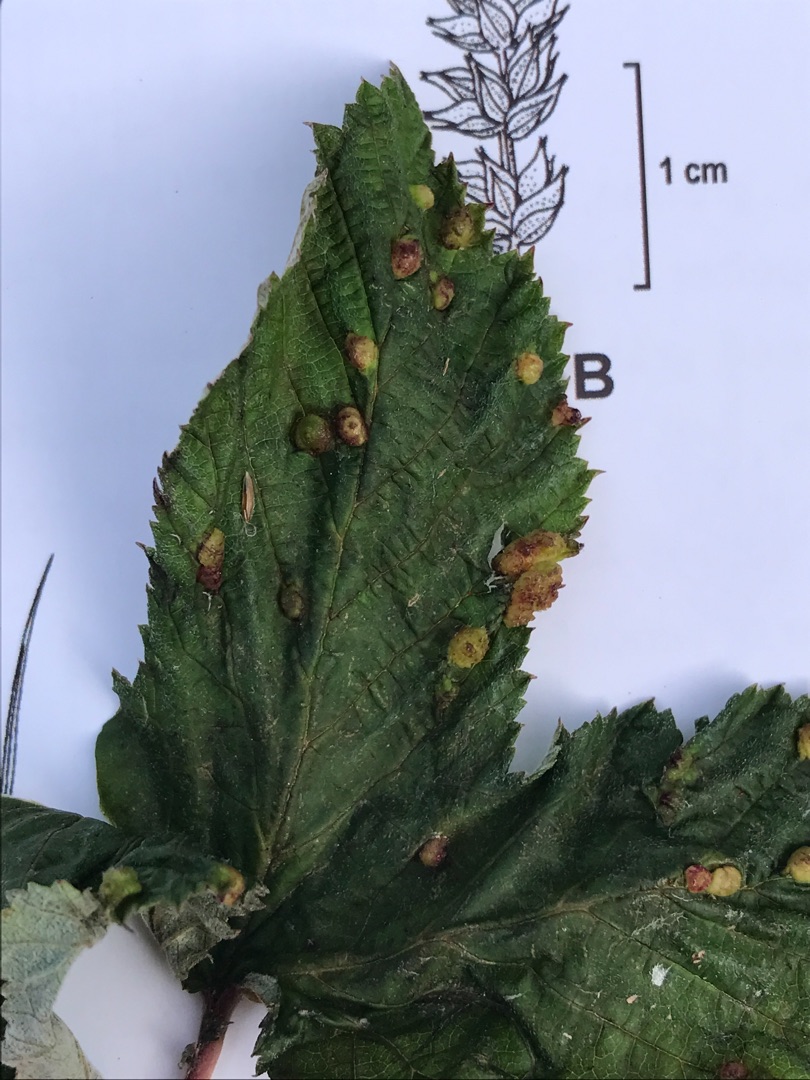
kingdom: Animalia
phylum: Arthropoda
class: Insecta
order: Diptera
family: Cecidomyiidae
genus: Dasineura
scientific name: Dasineura ulmaria
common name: Mjødurtgalmyg
